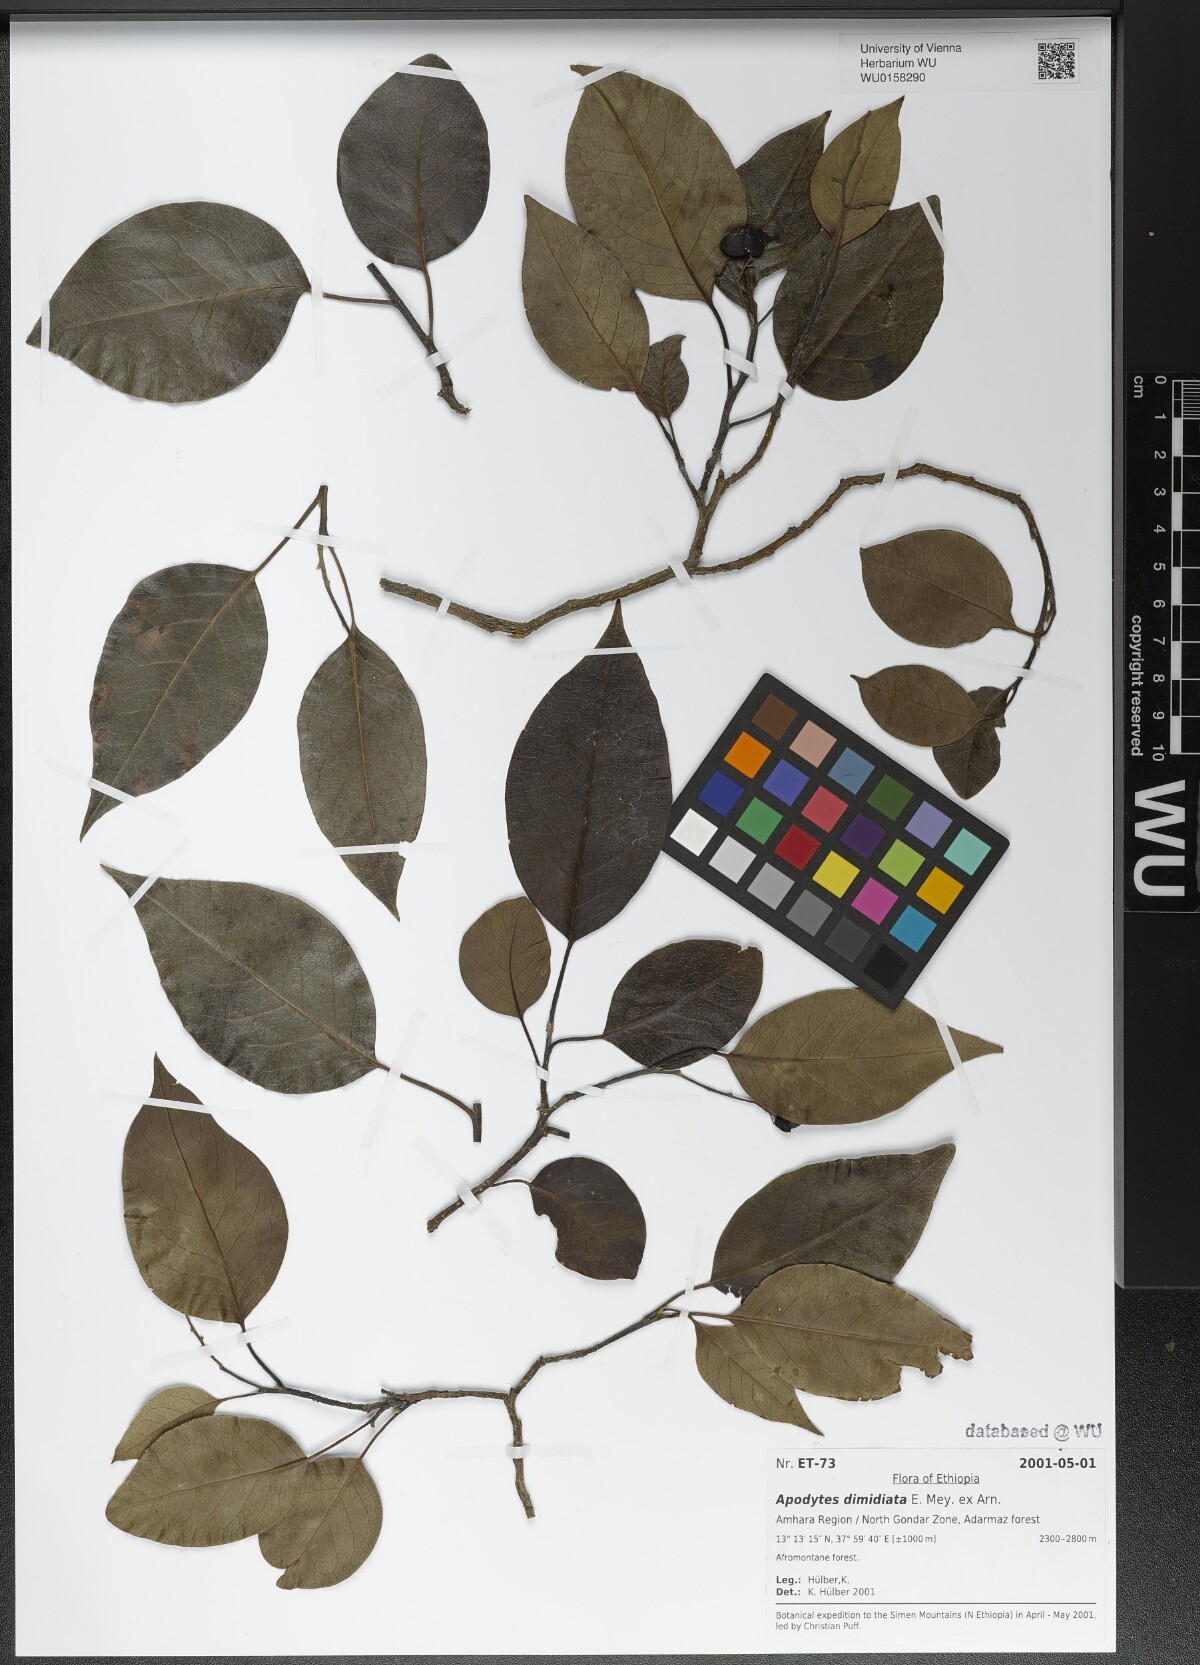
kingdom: Plantae
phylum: Tracheophyta
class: Magnoliopsida
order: Metteniusales
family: Metteniusaceae
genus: Apodytes
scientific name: Apodytes dimidiata
